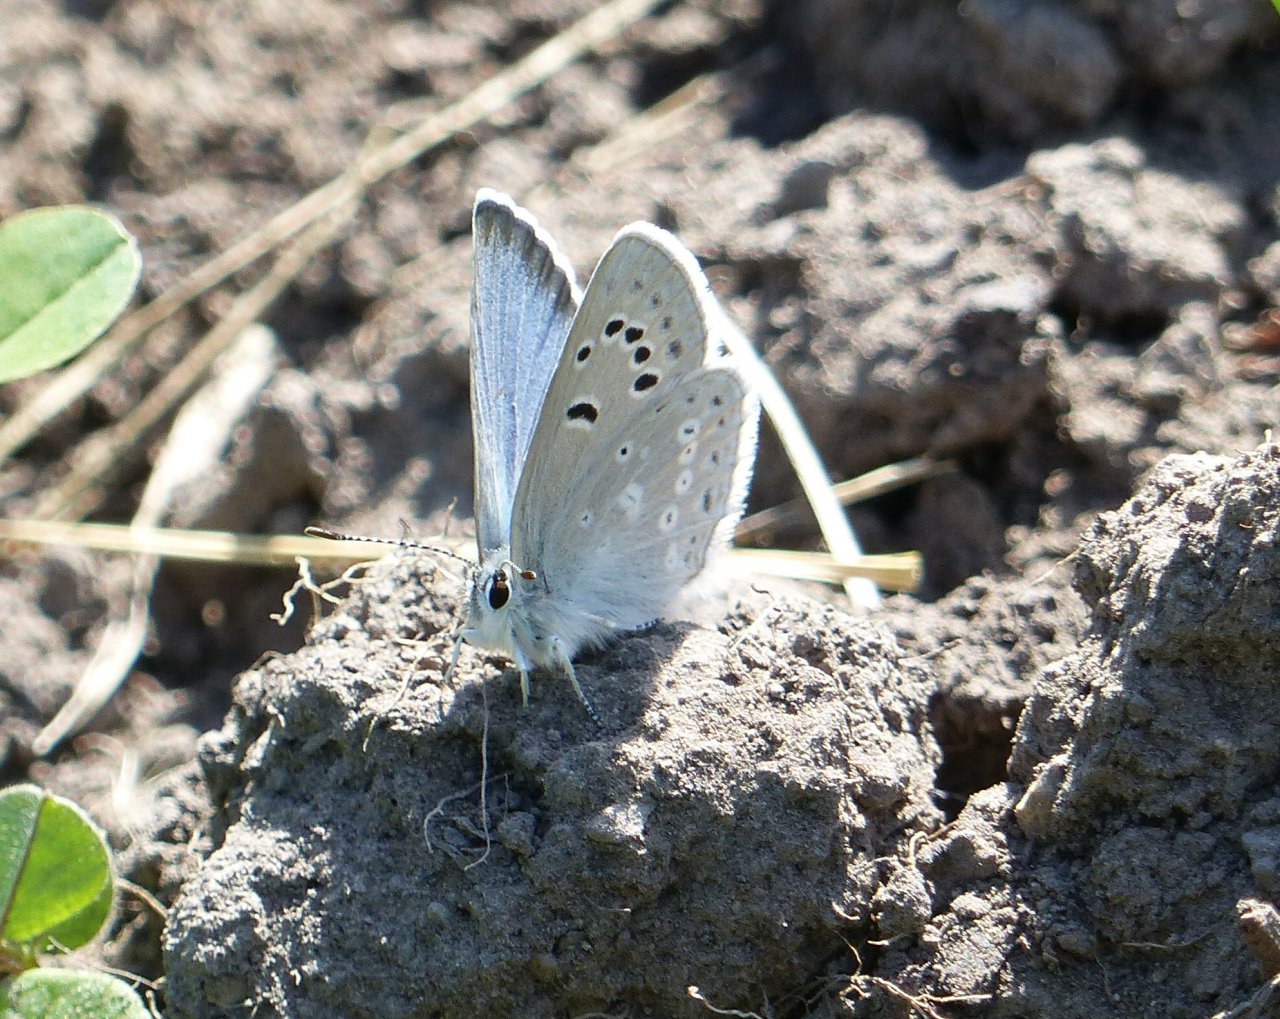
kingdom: Animalia
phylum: Arthropoda
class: Insecta
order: Lepidoptera
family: Lycaenidae
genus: Lycaeides
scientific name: Lycaeides idas
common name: Northern Blue
